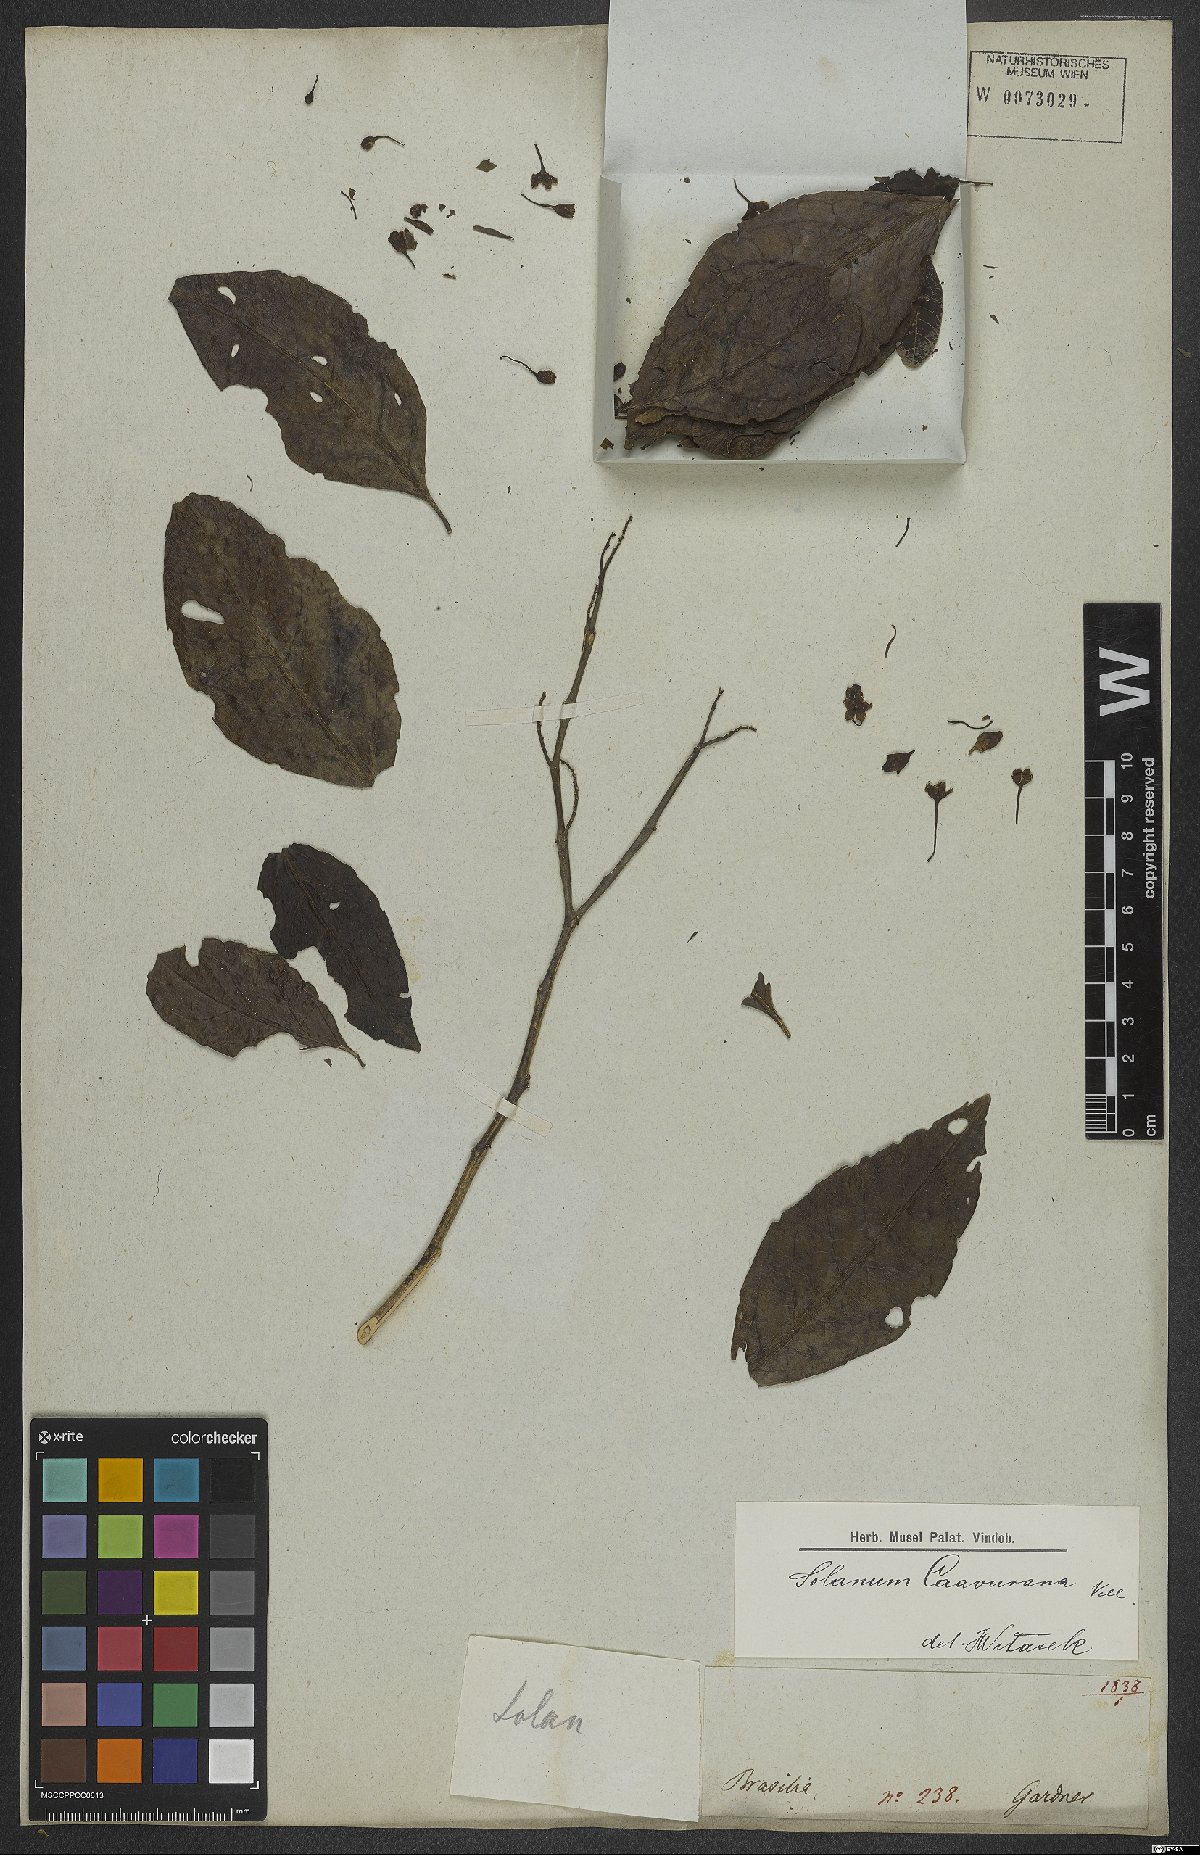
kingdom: Plantae
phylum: Tracheophyta
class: Magnoliopsida
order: Solanales
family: Solanaceae
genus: Solanum
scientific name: Solanum caavurana
